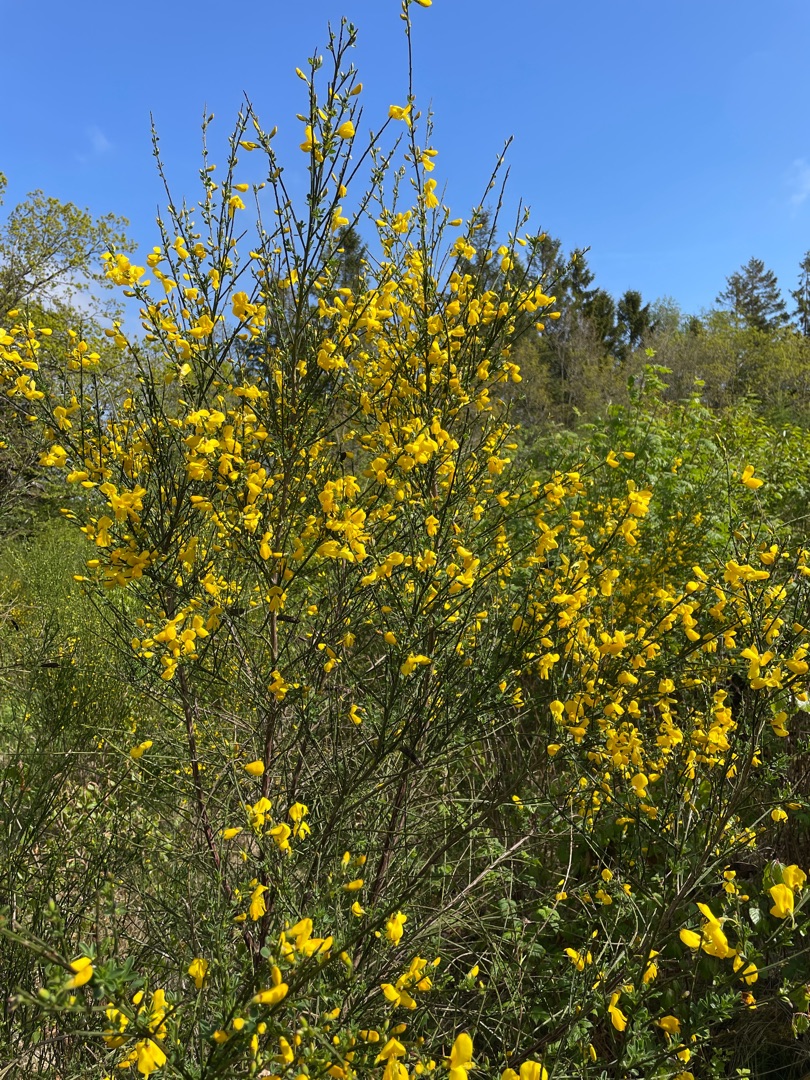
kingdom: Plantae
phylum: Tracheophyta
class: Magnoliopsida
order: Fabales
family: Fabaceae
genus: Cytisus
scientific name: Cytisus scoparius
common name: Almindelig gyvel
